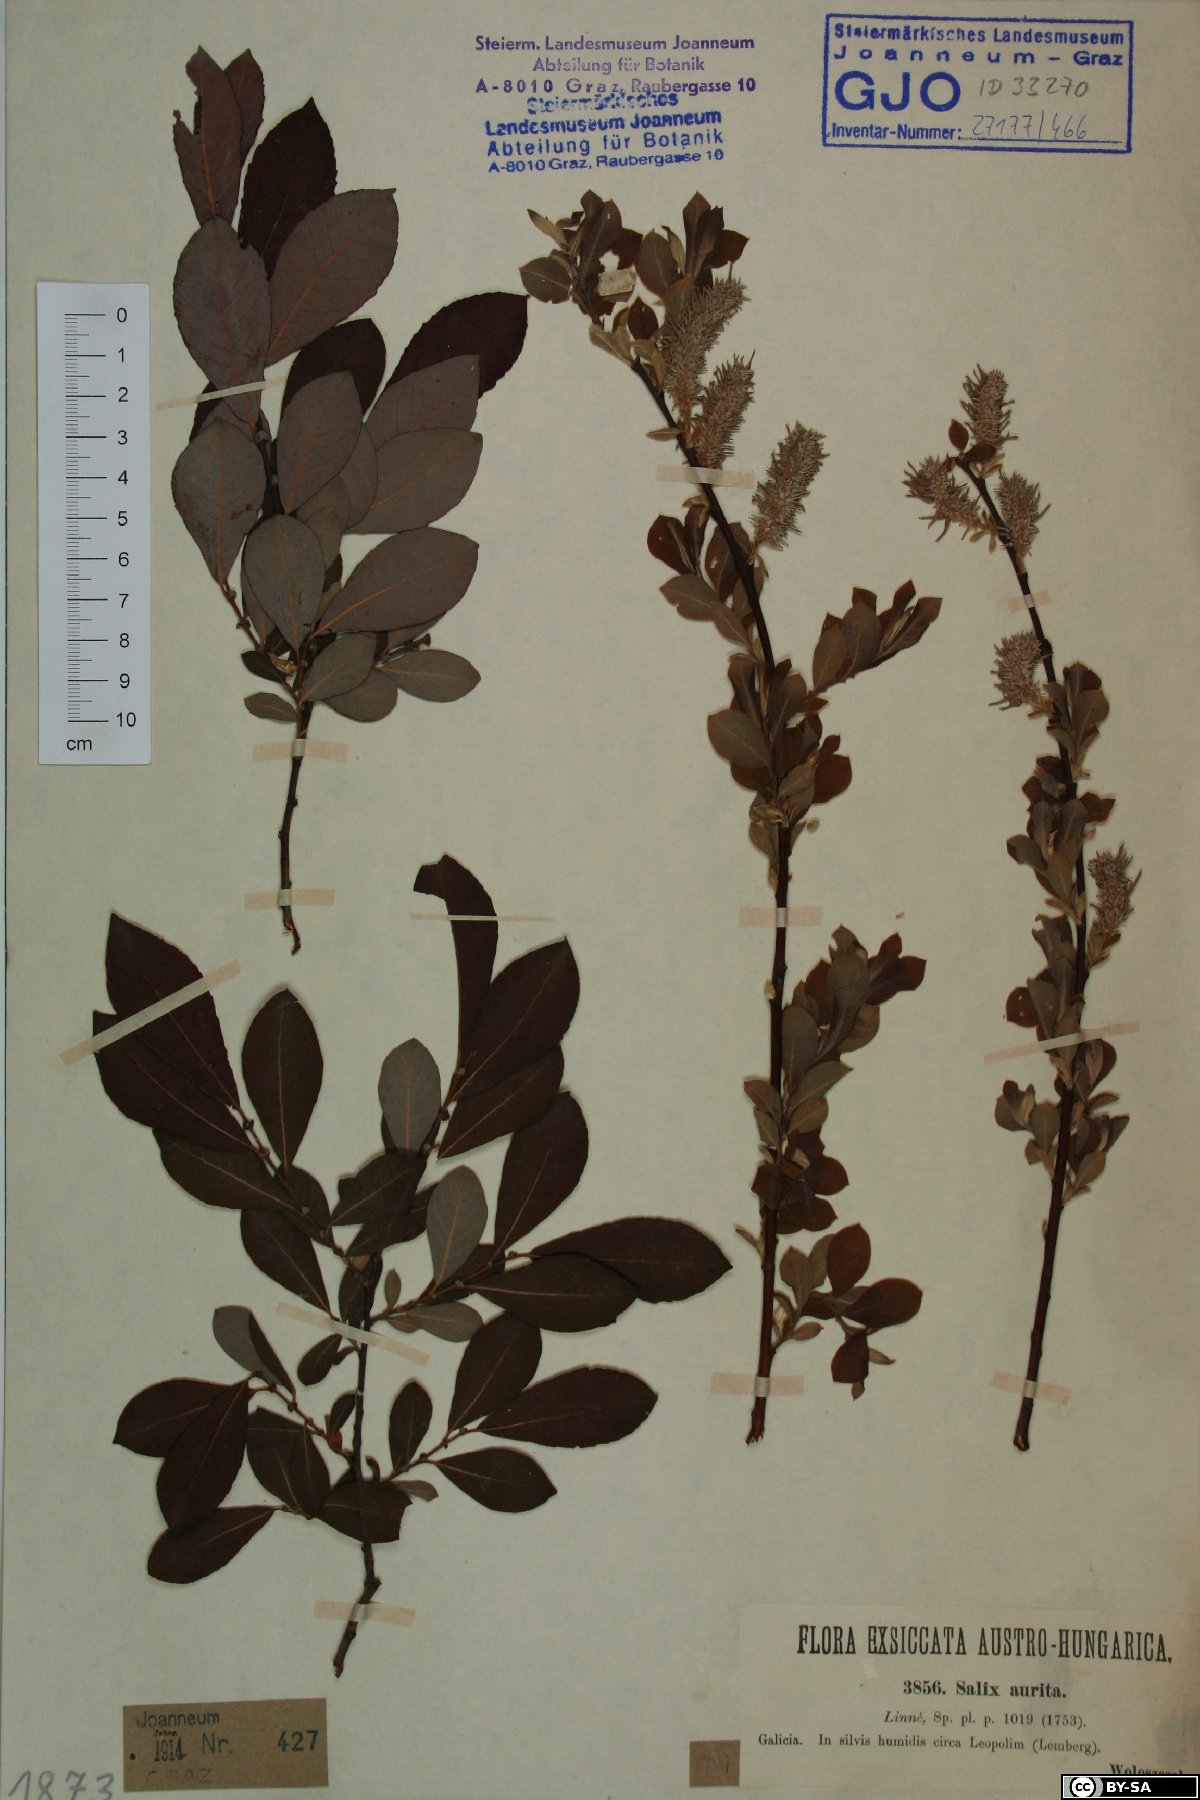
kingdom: Plantae
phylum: Tracheophyta
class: Magnoliopsida
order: Malpighiales
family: Salicaceae
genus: Salix
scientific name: Salix aurita
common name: Eared willow
